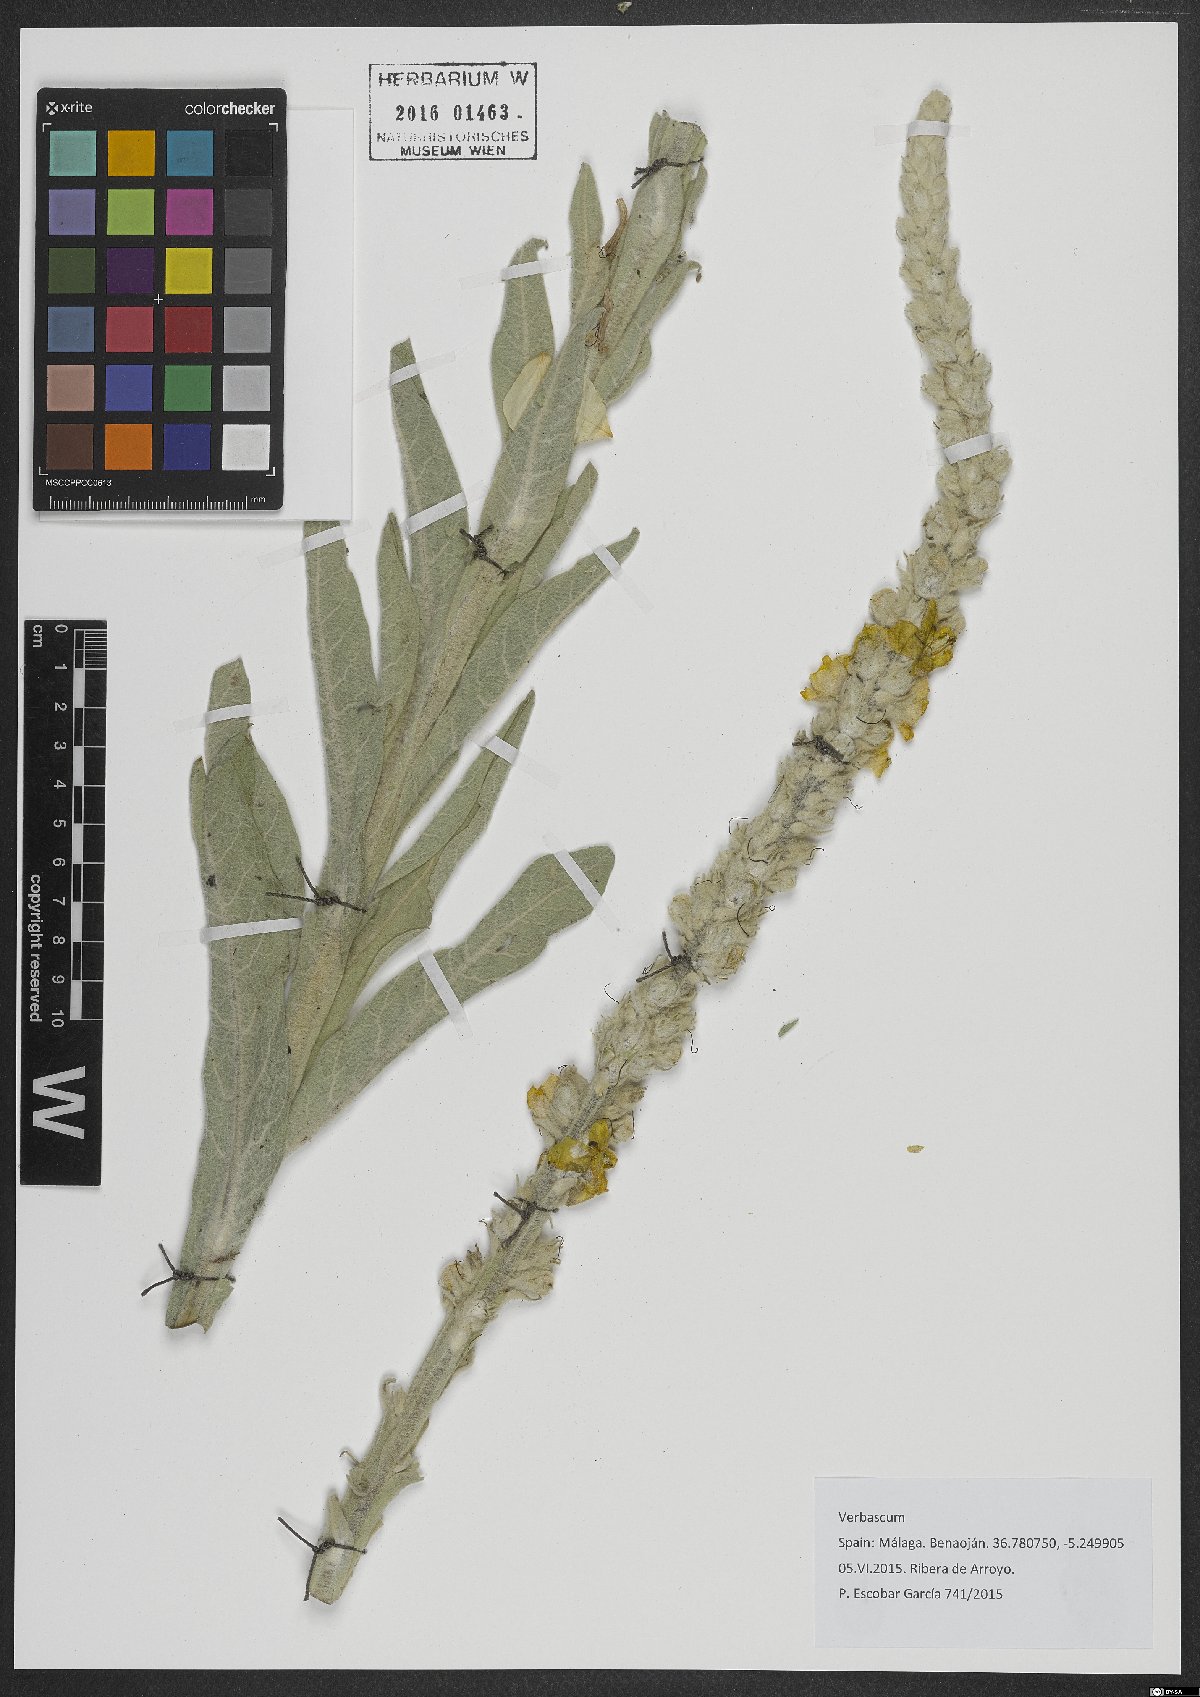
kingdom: Plantae
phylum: Tracheophyta
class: Magnoliopsida
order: Lamiales
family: Scrophulariaceae
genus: Verbascum
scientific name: Verbascum
